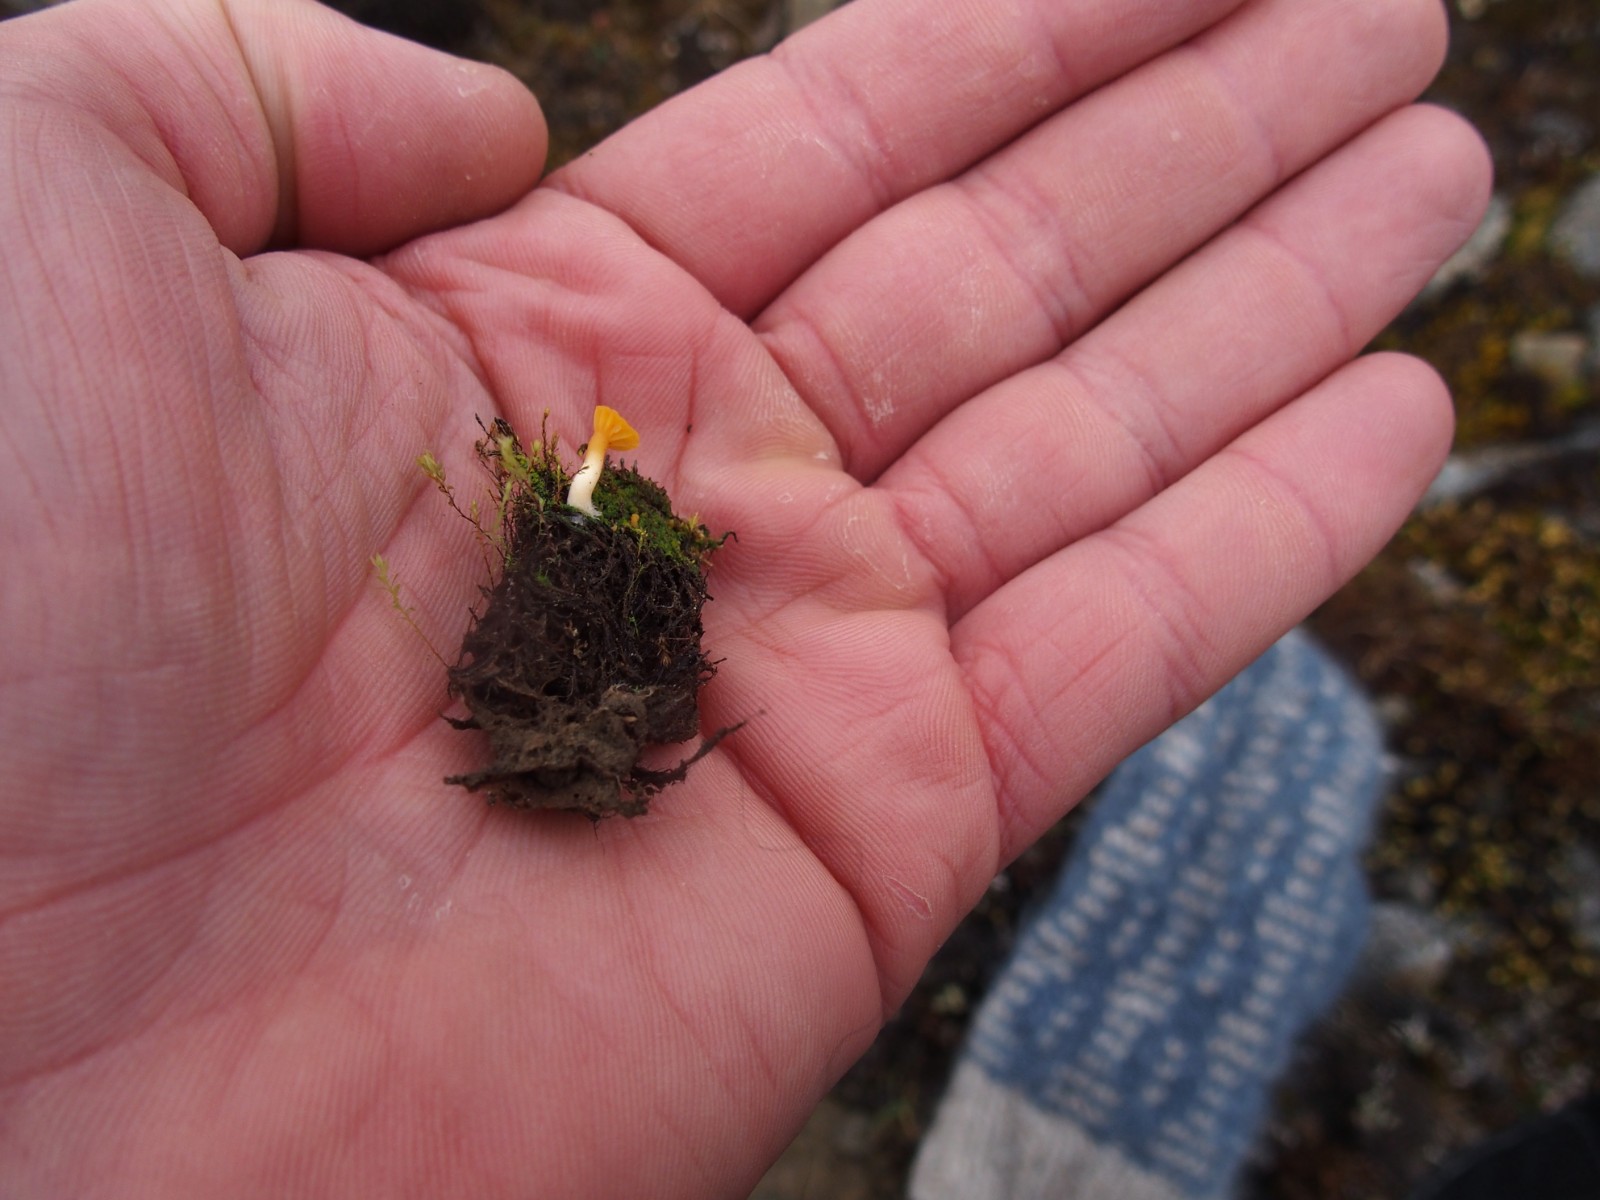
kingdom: Fungi
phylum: Basidiomycota
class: Agaricomycetes
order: Agaricales
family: Hygrophoraceae
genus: Lichenomphalia
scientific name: Lichenomphalia alpina
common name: fjeld-lavhat
